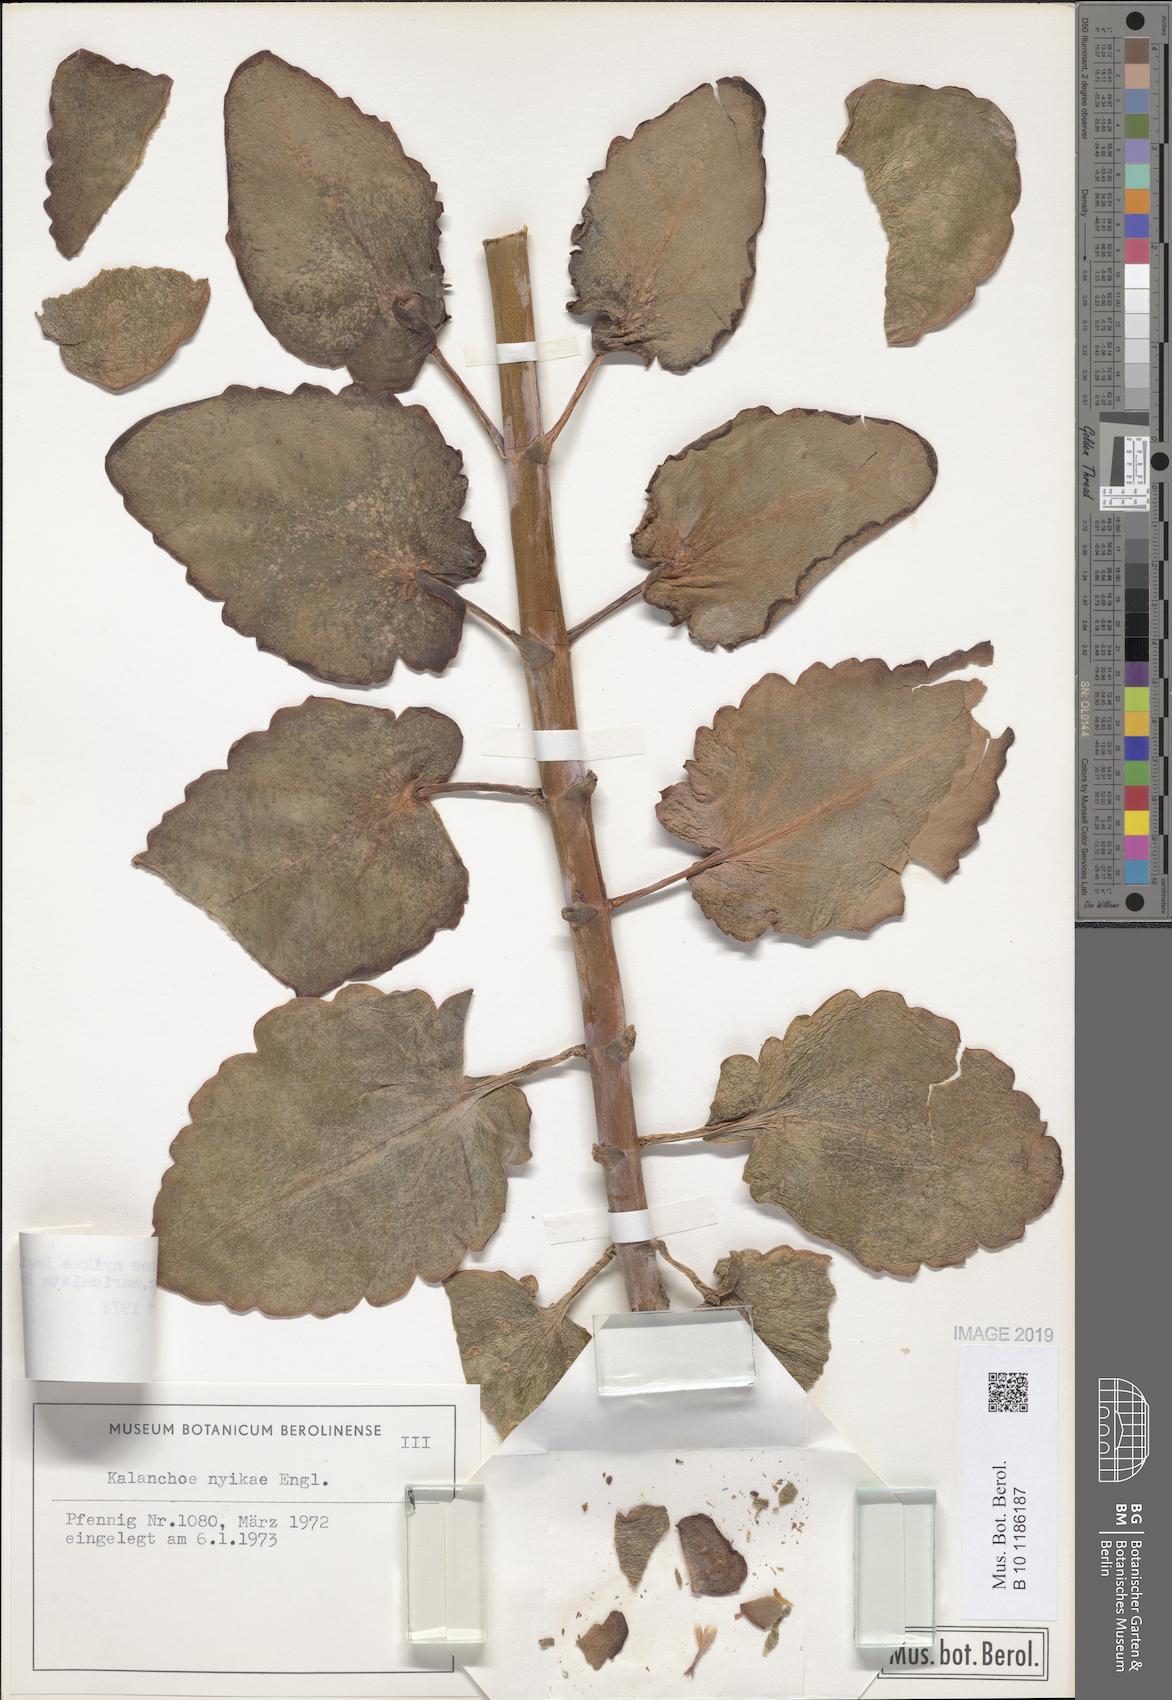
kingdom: Plantae
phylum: Tracheophyta
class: Magnoliopsida
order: Saxifragales
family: Crassulaceae
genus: Kalanchoe
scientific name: Kalanchoe auriculata
